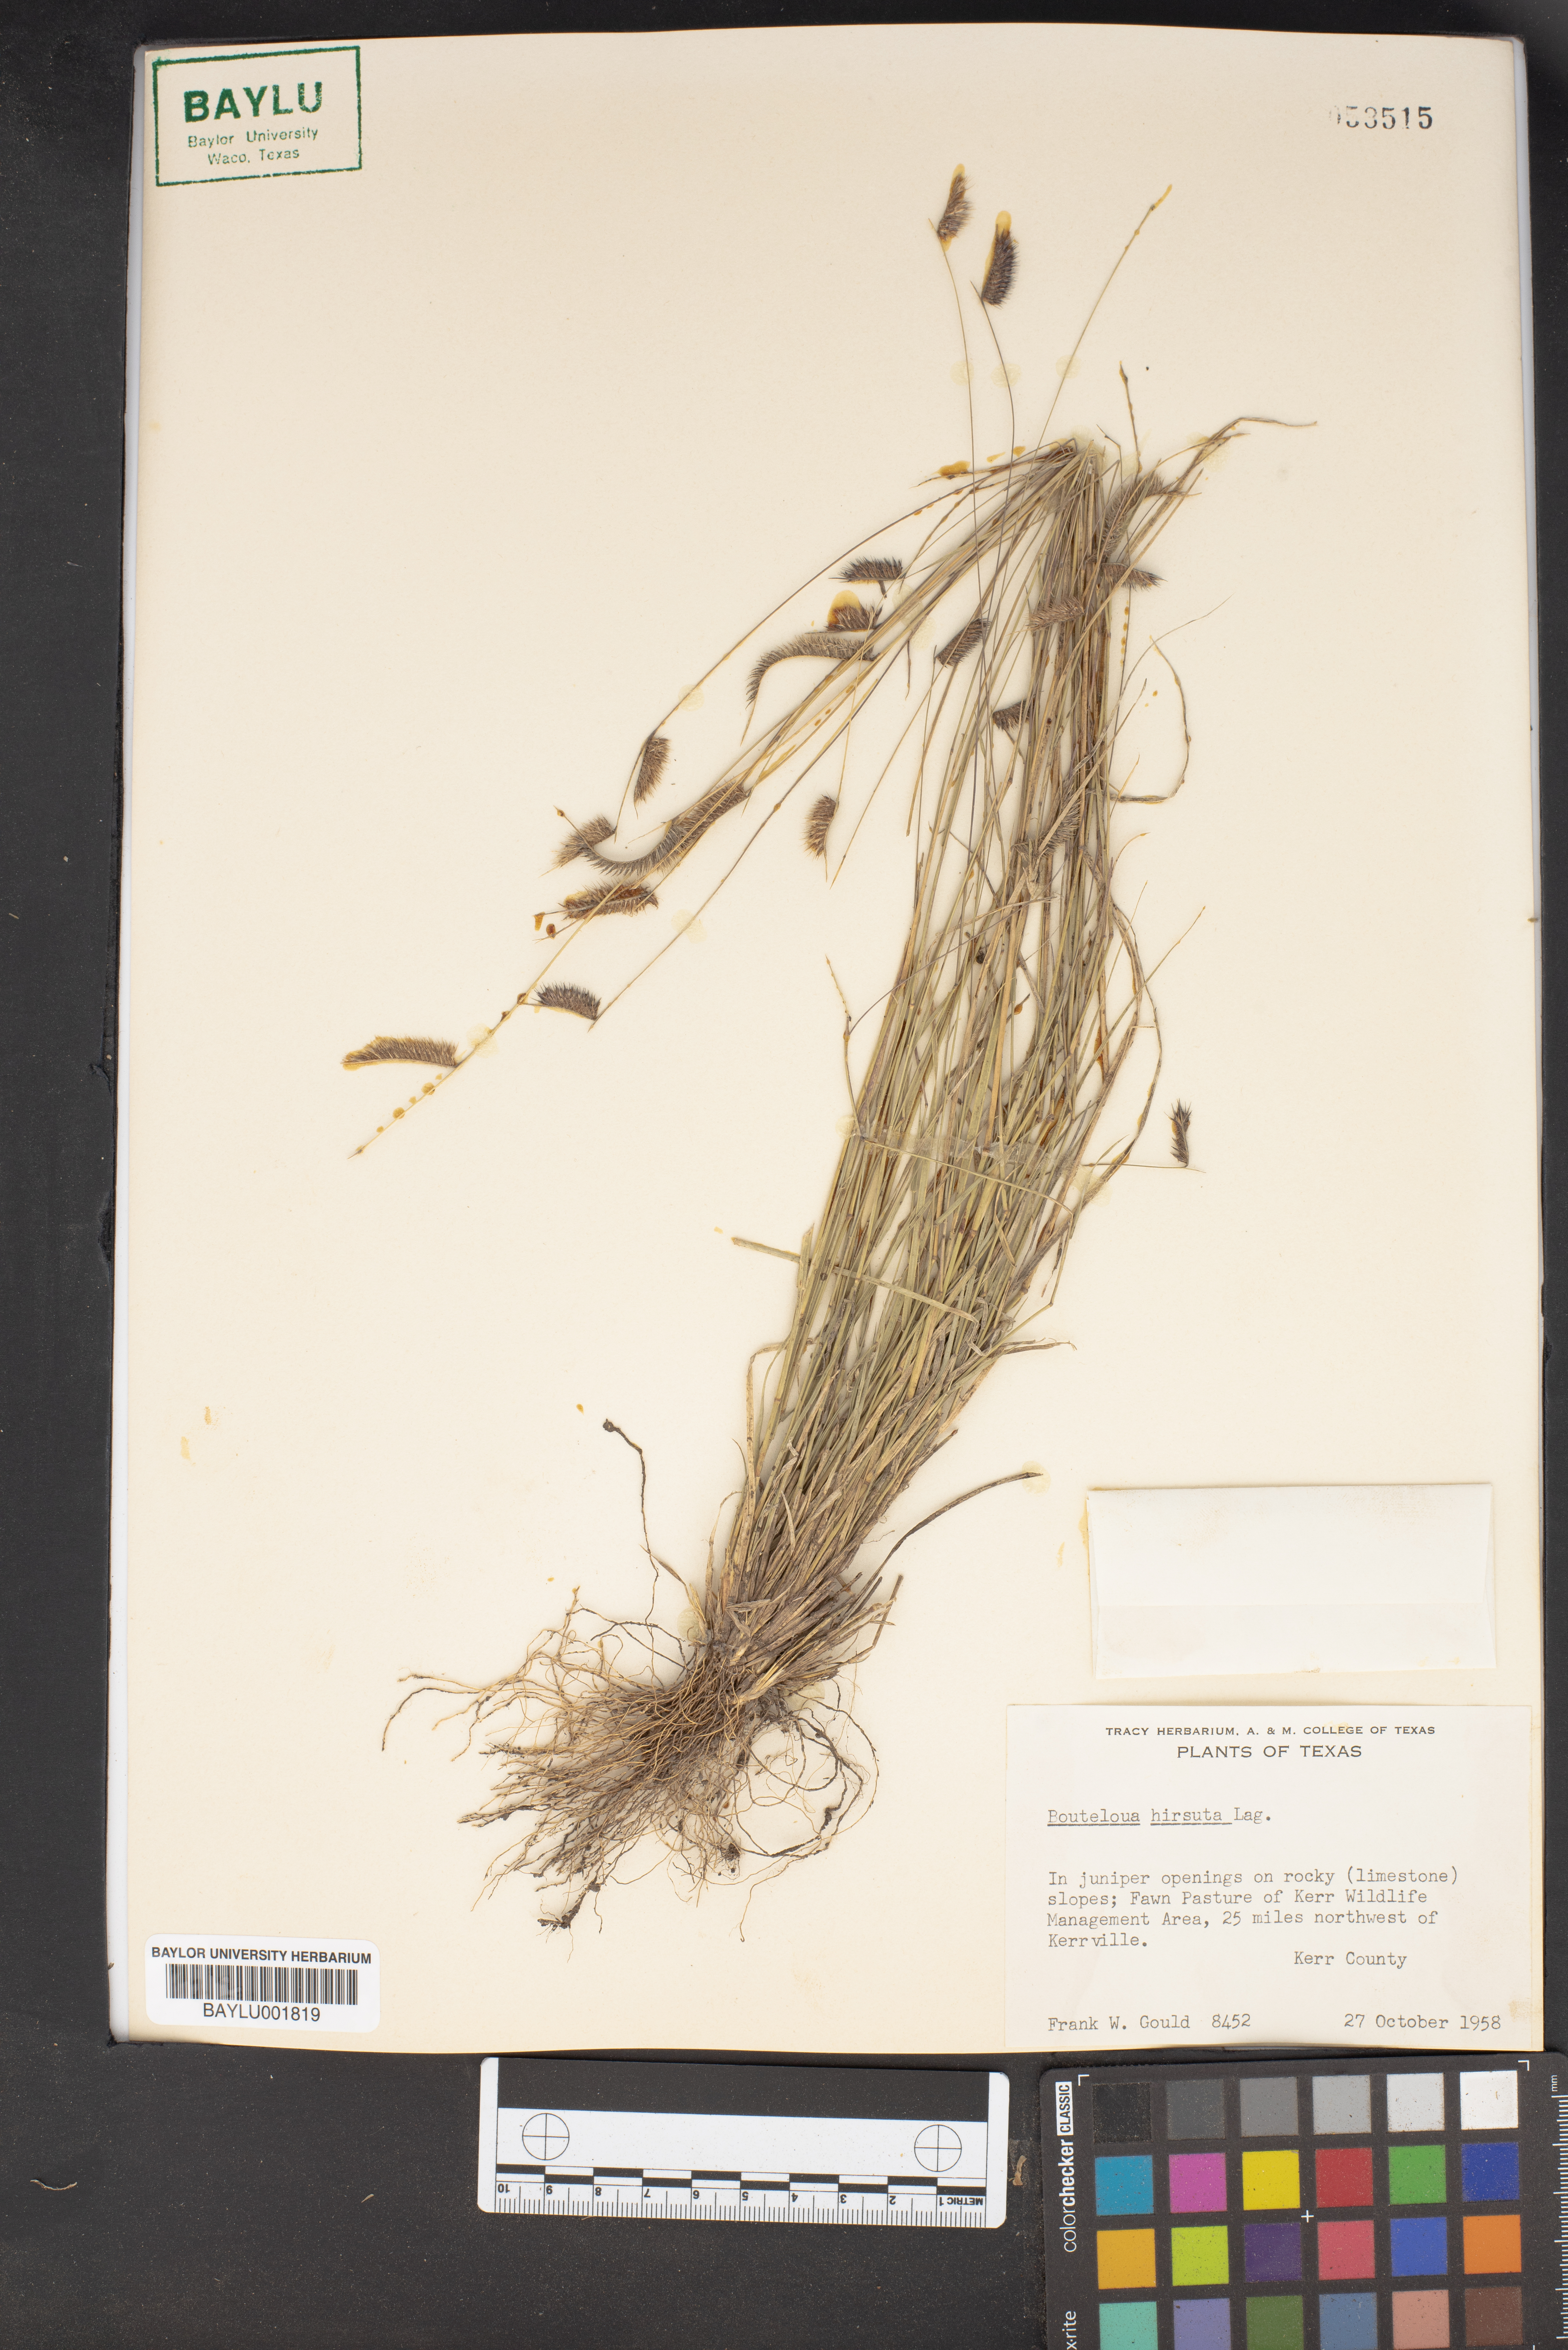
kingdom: Plantae
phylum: Tracheophyta
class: Liliopsida
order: Poales
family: Poaceae
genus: Bouteloua
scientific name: Bouteloua hirsuta
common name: Hairy grama
